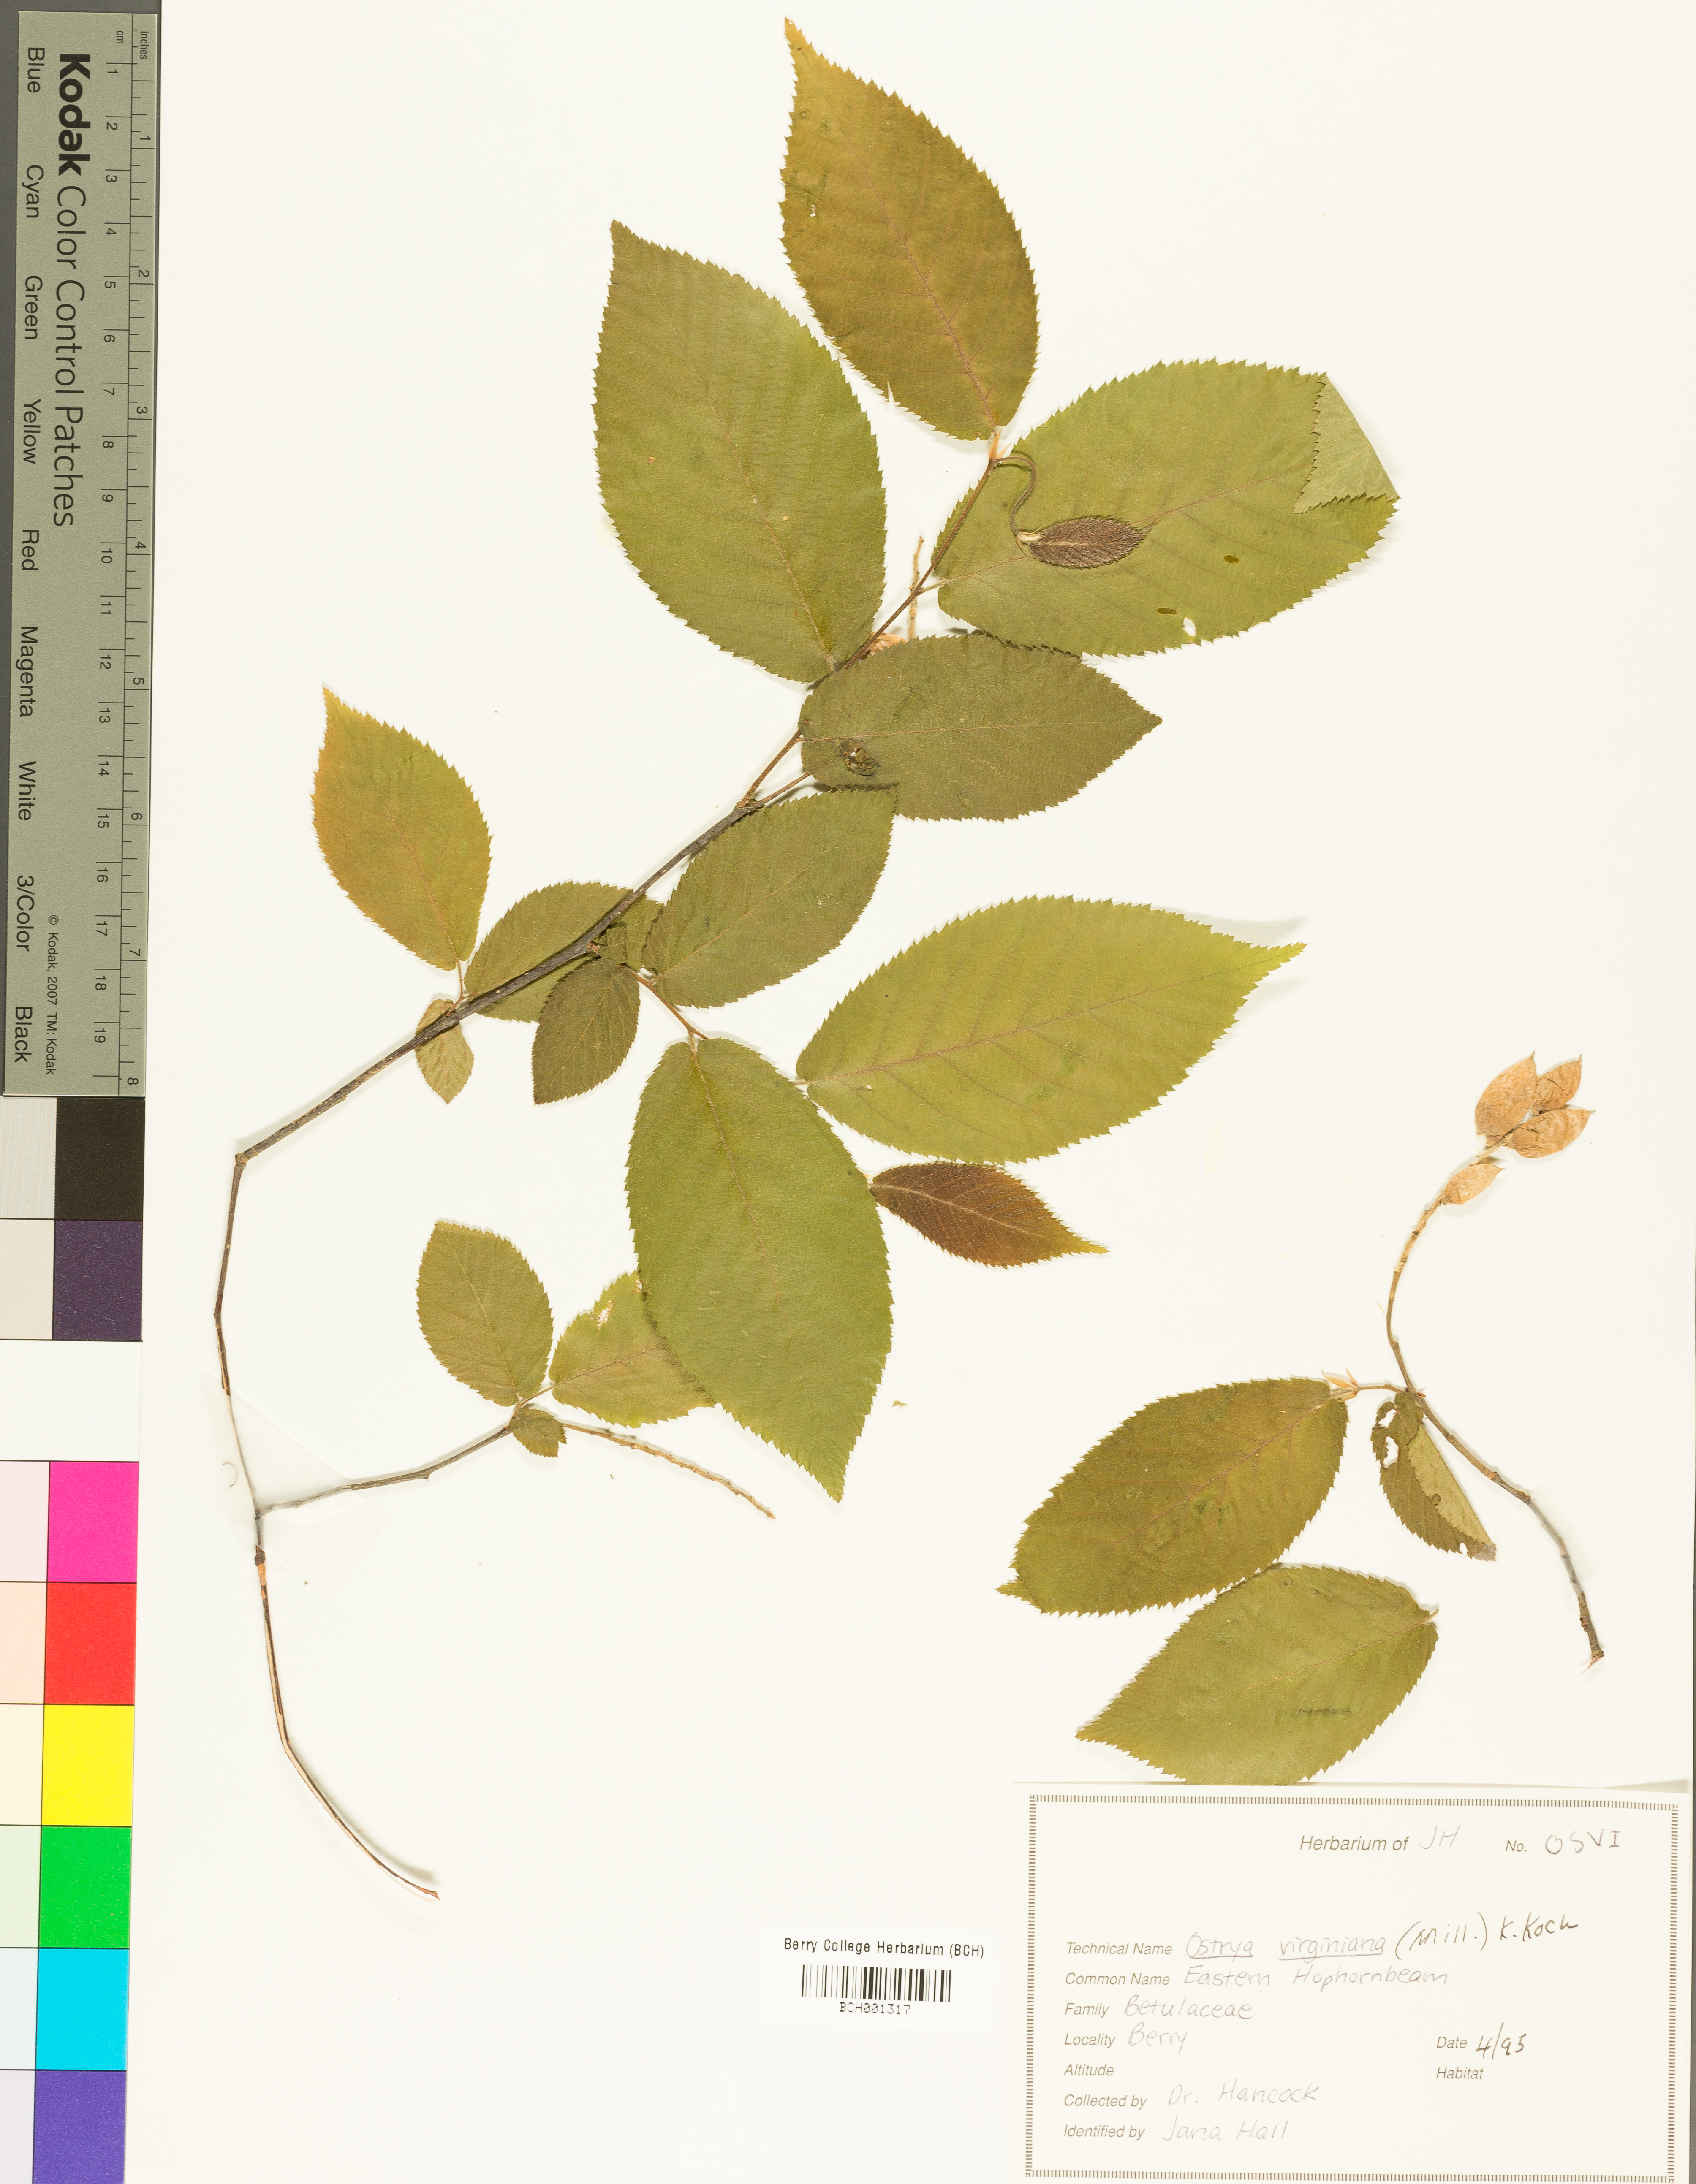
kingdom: Plantae
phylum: Tracheophyta
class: Magnoliopsida
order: Fagales
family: Betulaceae
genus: Ostrya
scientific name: Ostrya virginiana
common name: Ironwood
